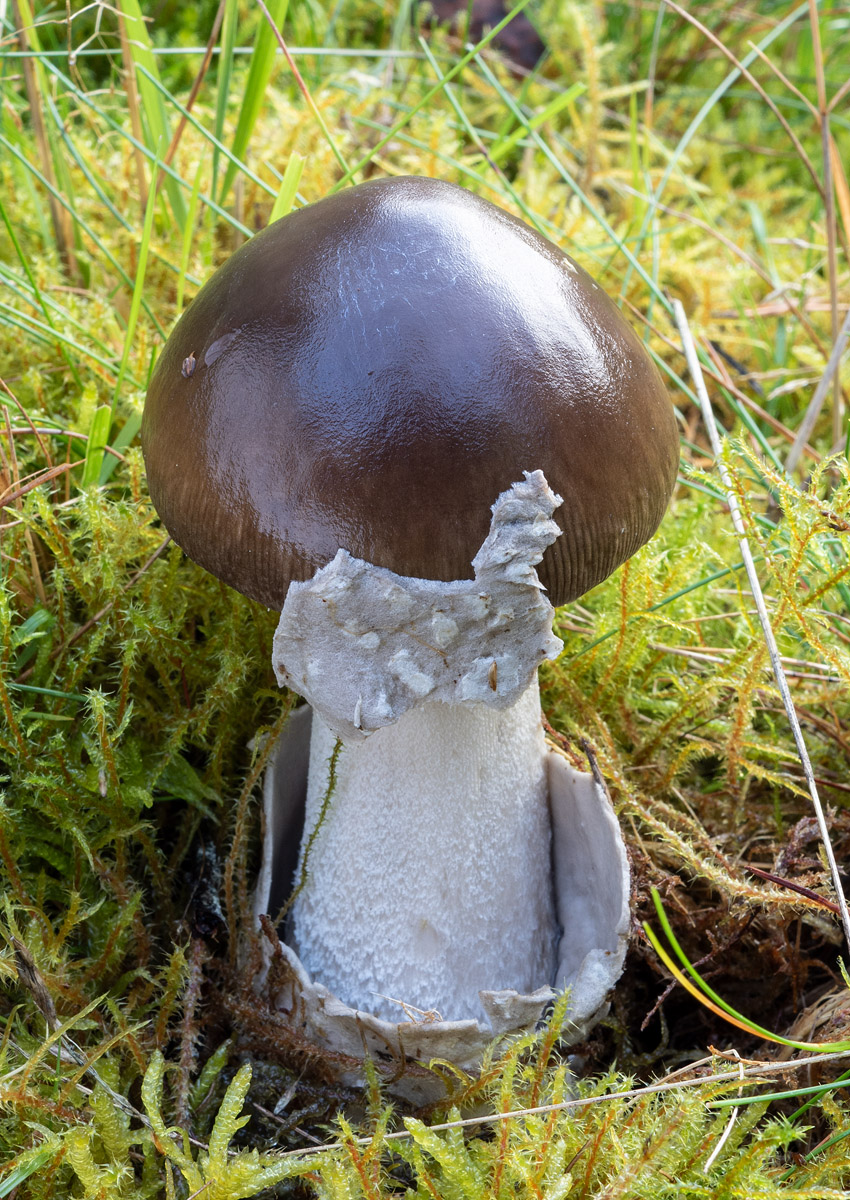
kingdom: Fungi
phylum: Basidiomycota
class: Agaricomycetes
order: Agaricales
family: Amanitaceae
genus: Amanita
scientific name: Amanita submembranacea
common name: gråspættet kam-fluesvamp
